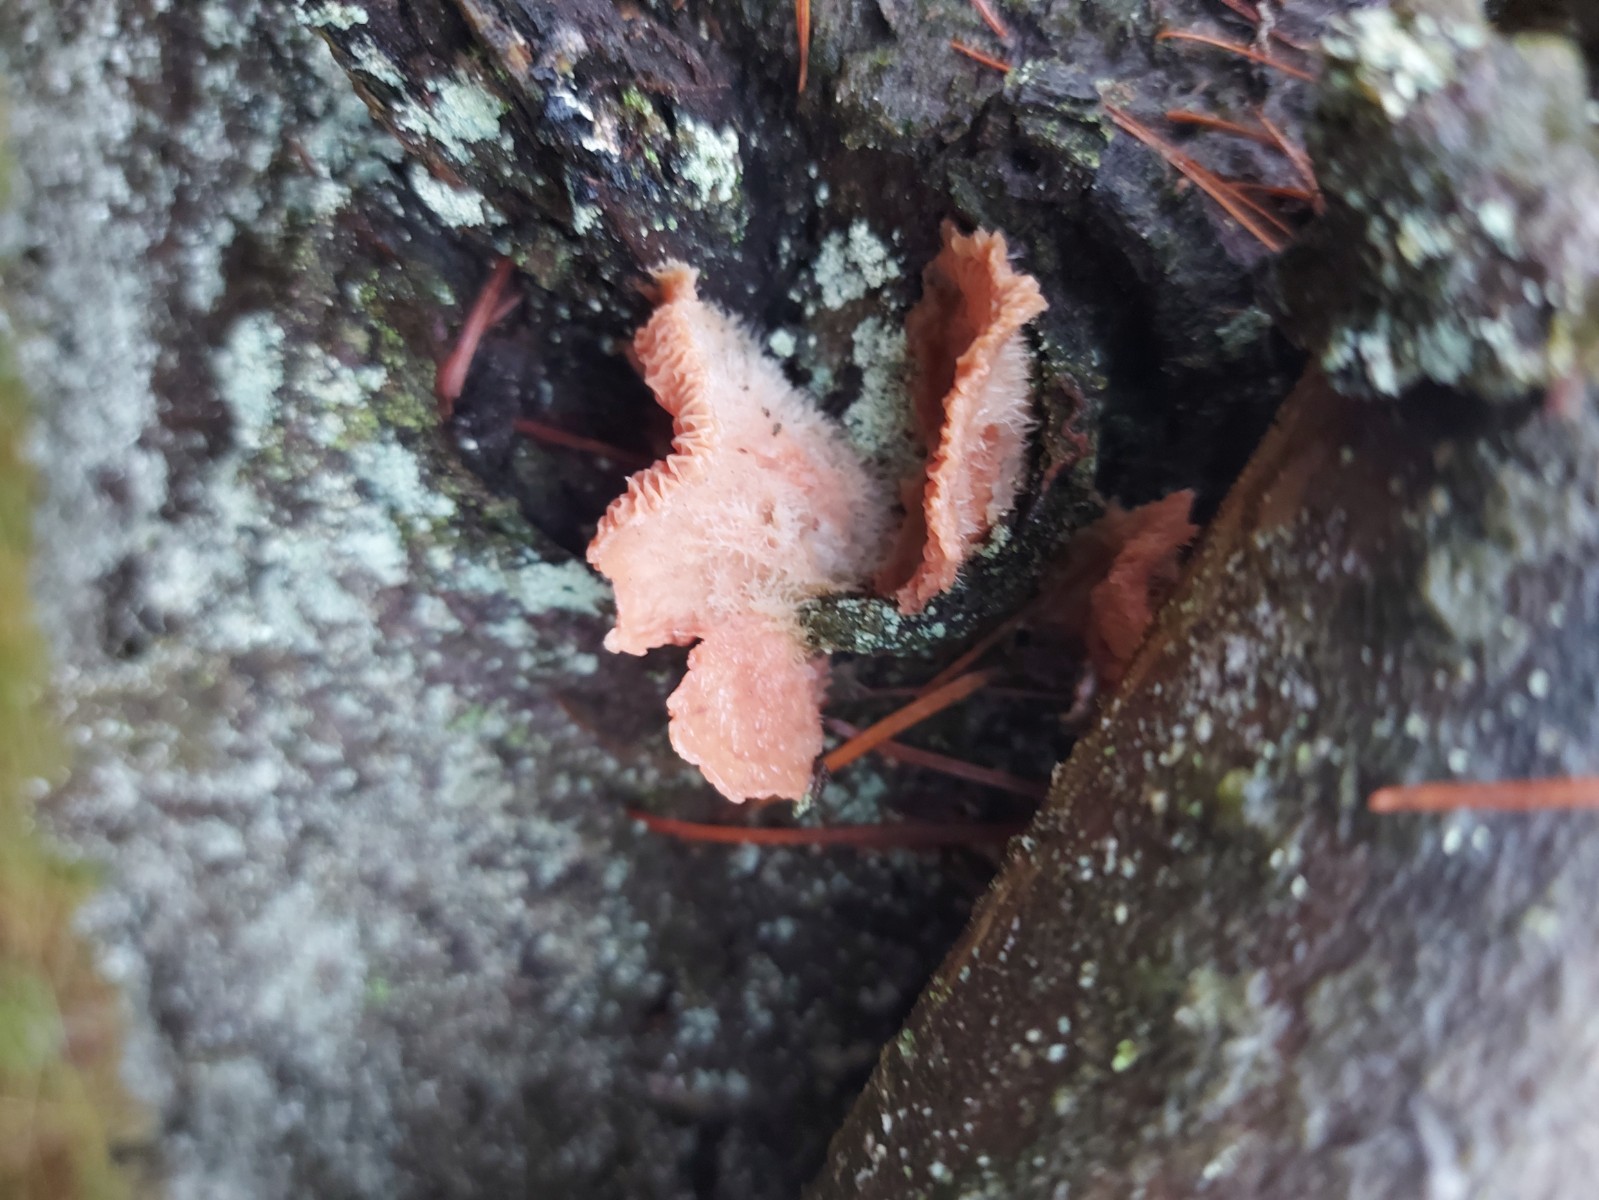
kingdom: Fungi
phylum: Basidiomycota
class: Agaricomycetes
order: Polyporales
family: Meruliaceae
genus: Phlebia
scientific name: Phlebia tremellosa
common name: bævrende åresvamp
